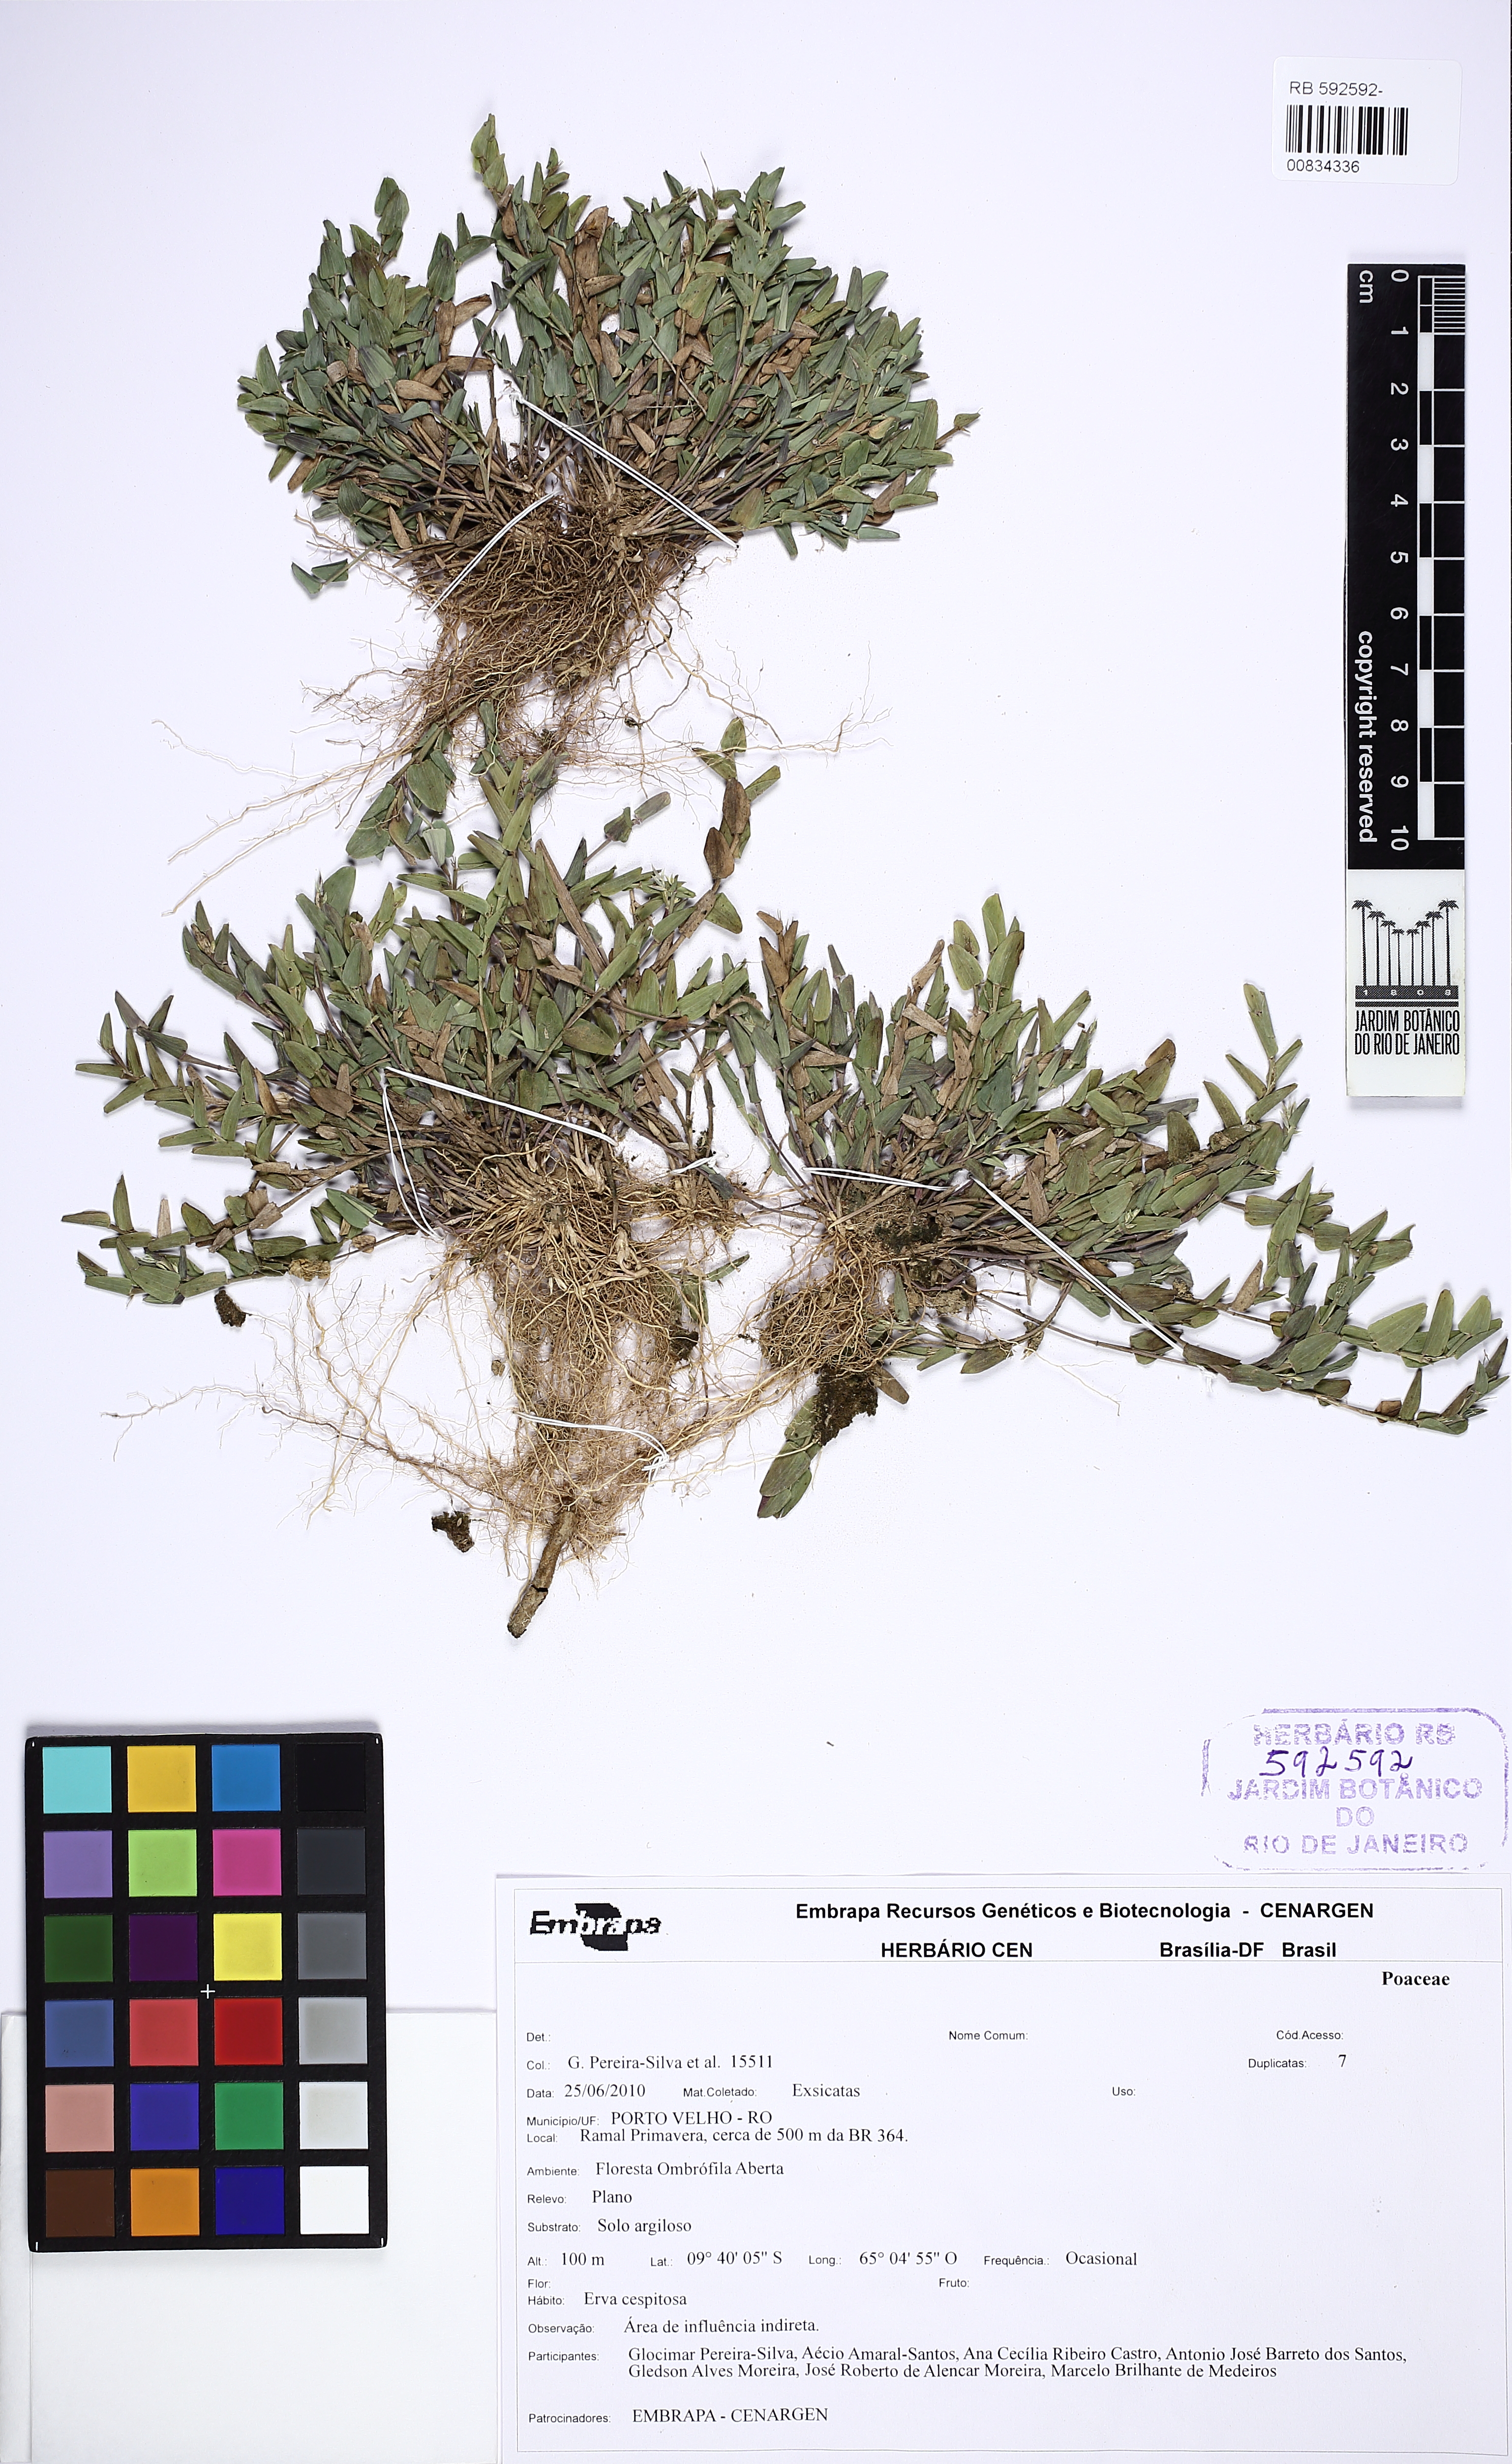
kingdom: Plantae
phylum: Tracheophyta
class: Liliopsida
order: Poales
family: Poaceae
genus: Raddiella
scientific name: Raddiella esenbeckii
